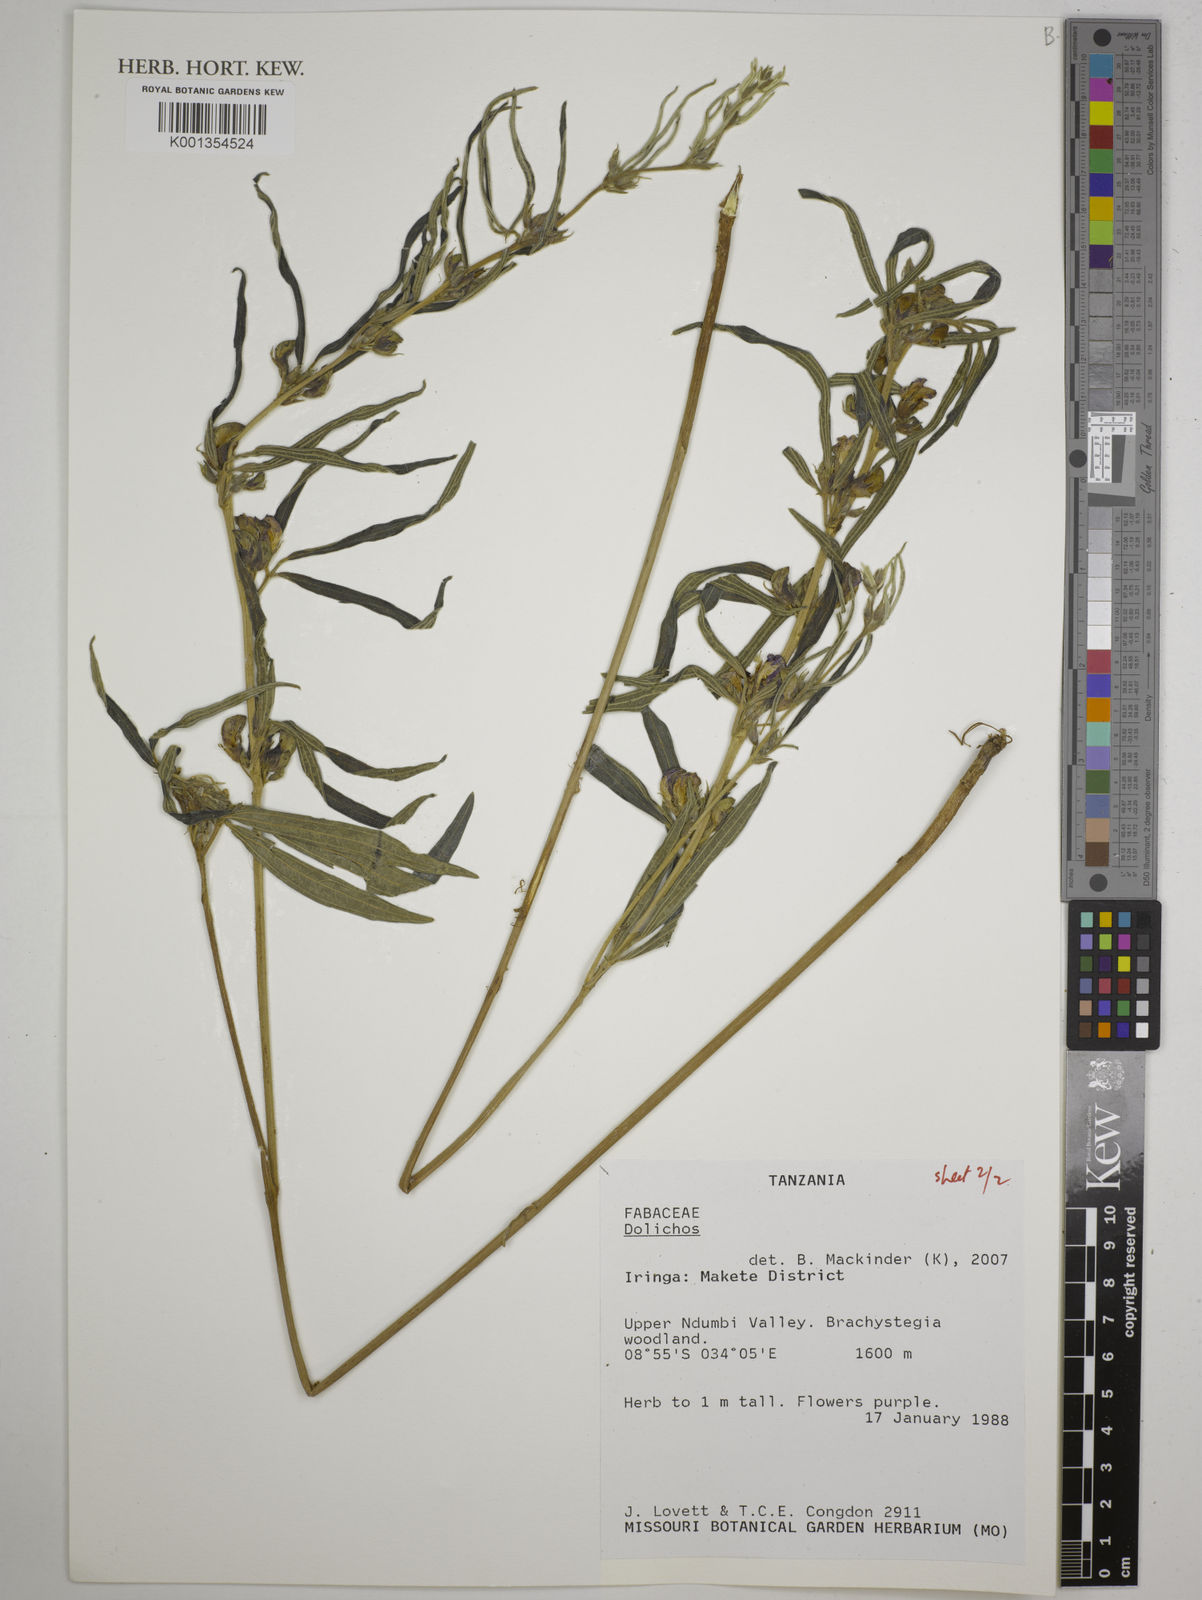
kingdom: Plantae
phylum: Tracheophyta
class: Magnoliopsida
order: Fabales
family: Fabaceae
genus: Dolichos
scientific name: Dolichos
